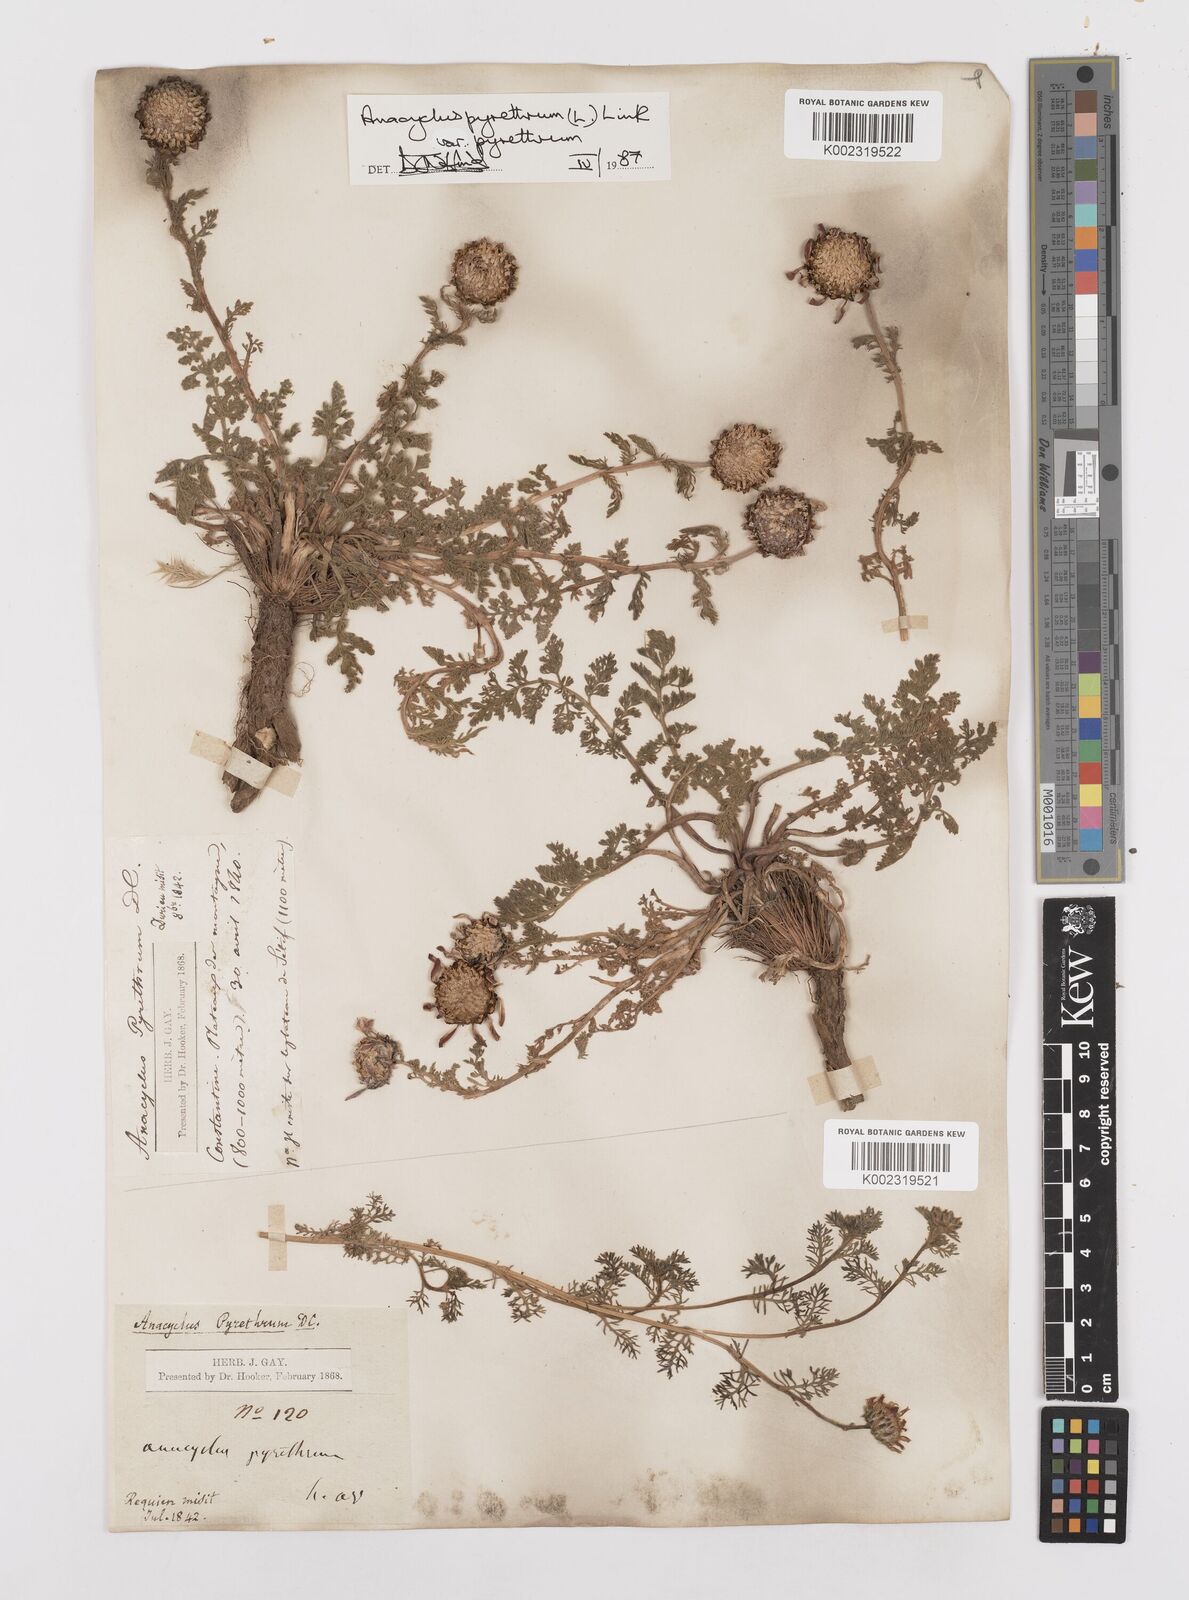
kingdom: Plantae
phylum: Tracheophyta
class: Magnoliopsida
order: Asterales
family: Asteraceae
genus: Anacyclus
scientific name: Anacyclus pyrethrum
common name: Mt. atlas daisy
